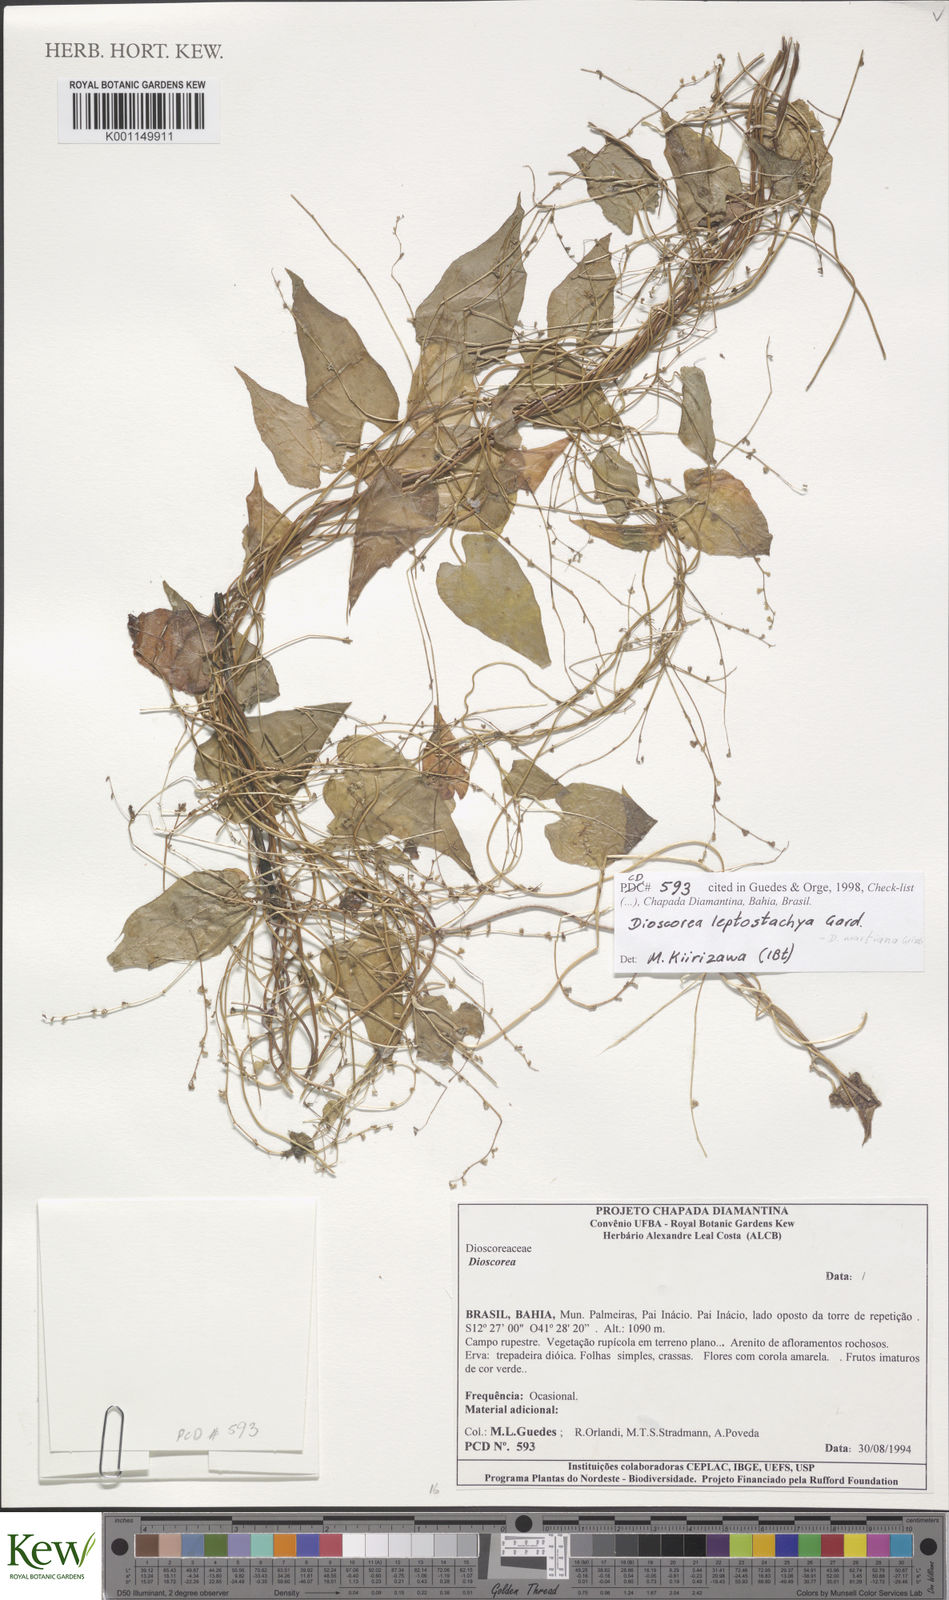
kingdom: Plantae
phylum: Tracheophyta
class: Liliopsida
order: Dioscoreales
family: Dioscoreaceae
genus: Dioscorea
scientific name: Dioscorea martiana
